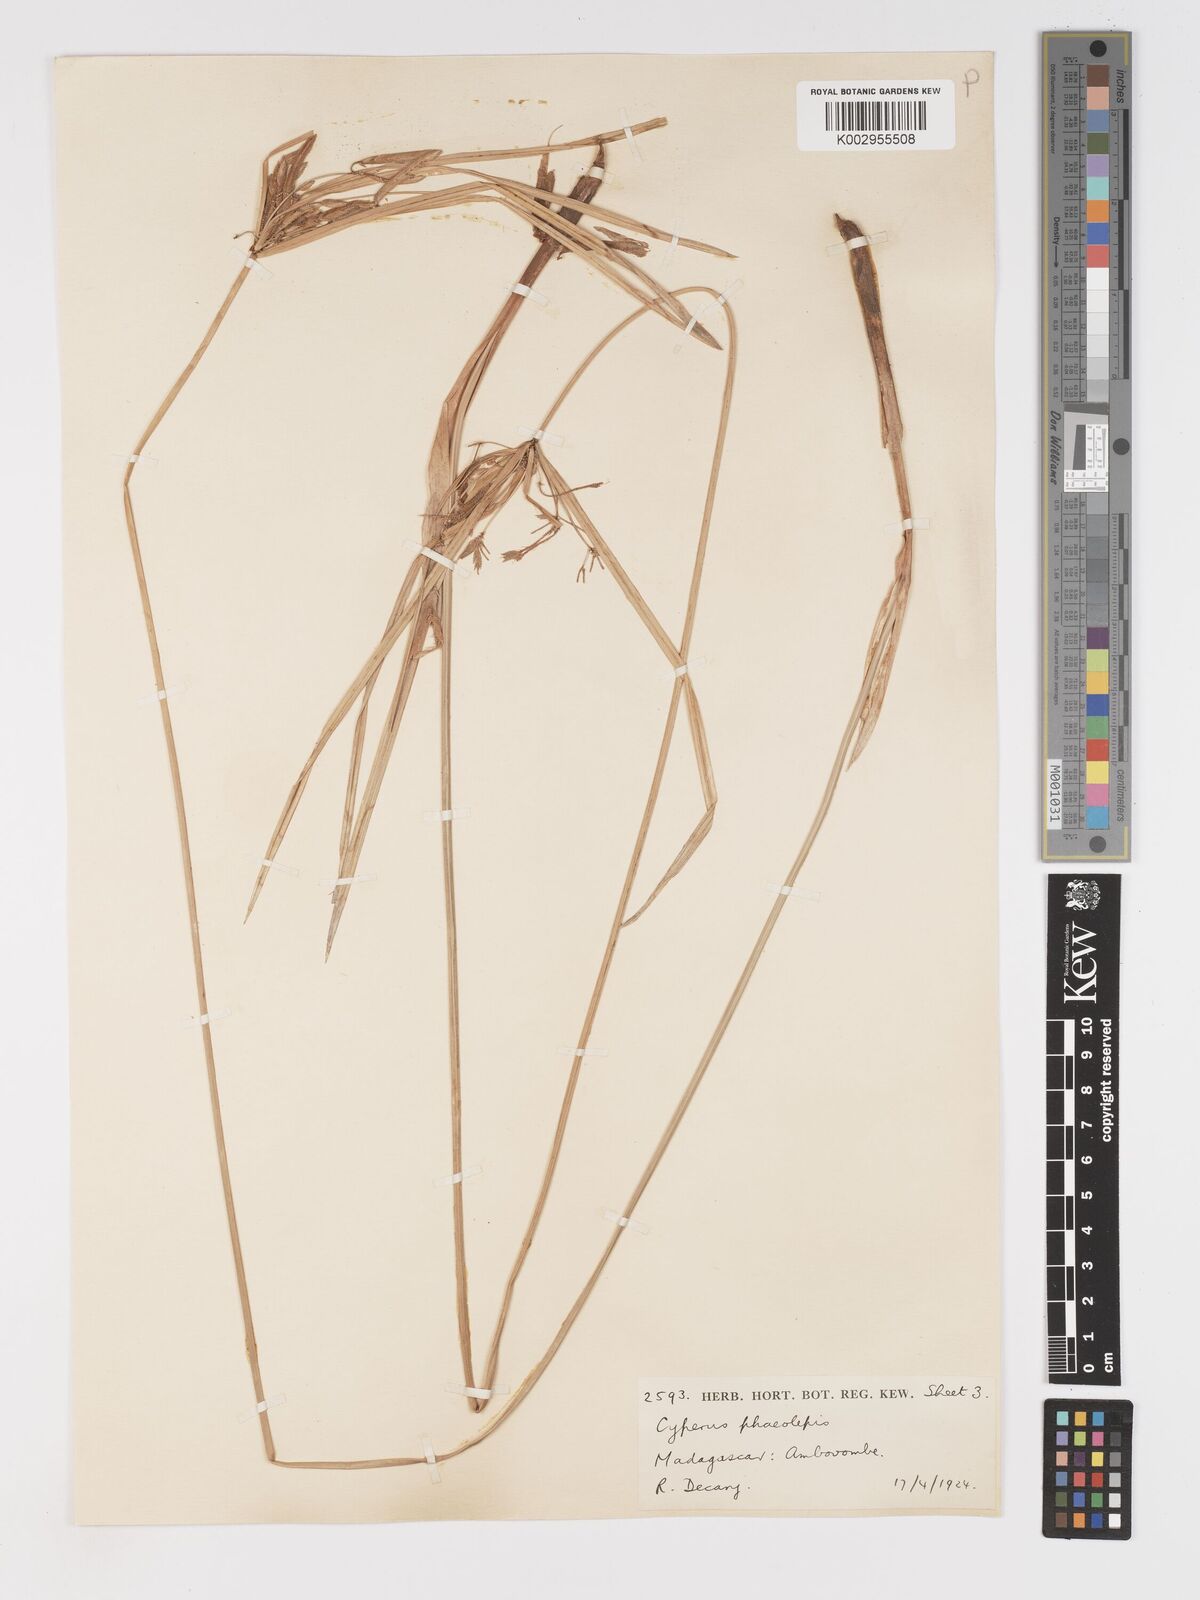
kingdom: Plantae
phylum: Tracheophyta
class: Liliopsida
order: Poales
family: Cyperaceae
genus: Cyperus
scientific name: Cyperus phaeolepis
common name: Madagascar flatsedge
